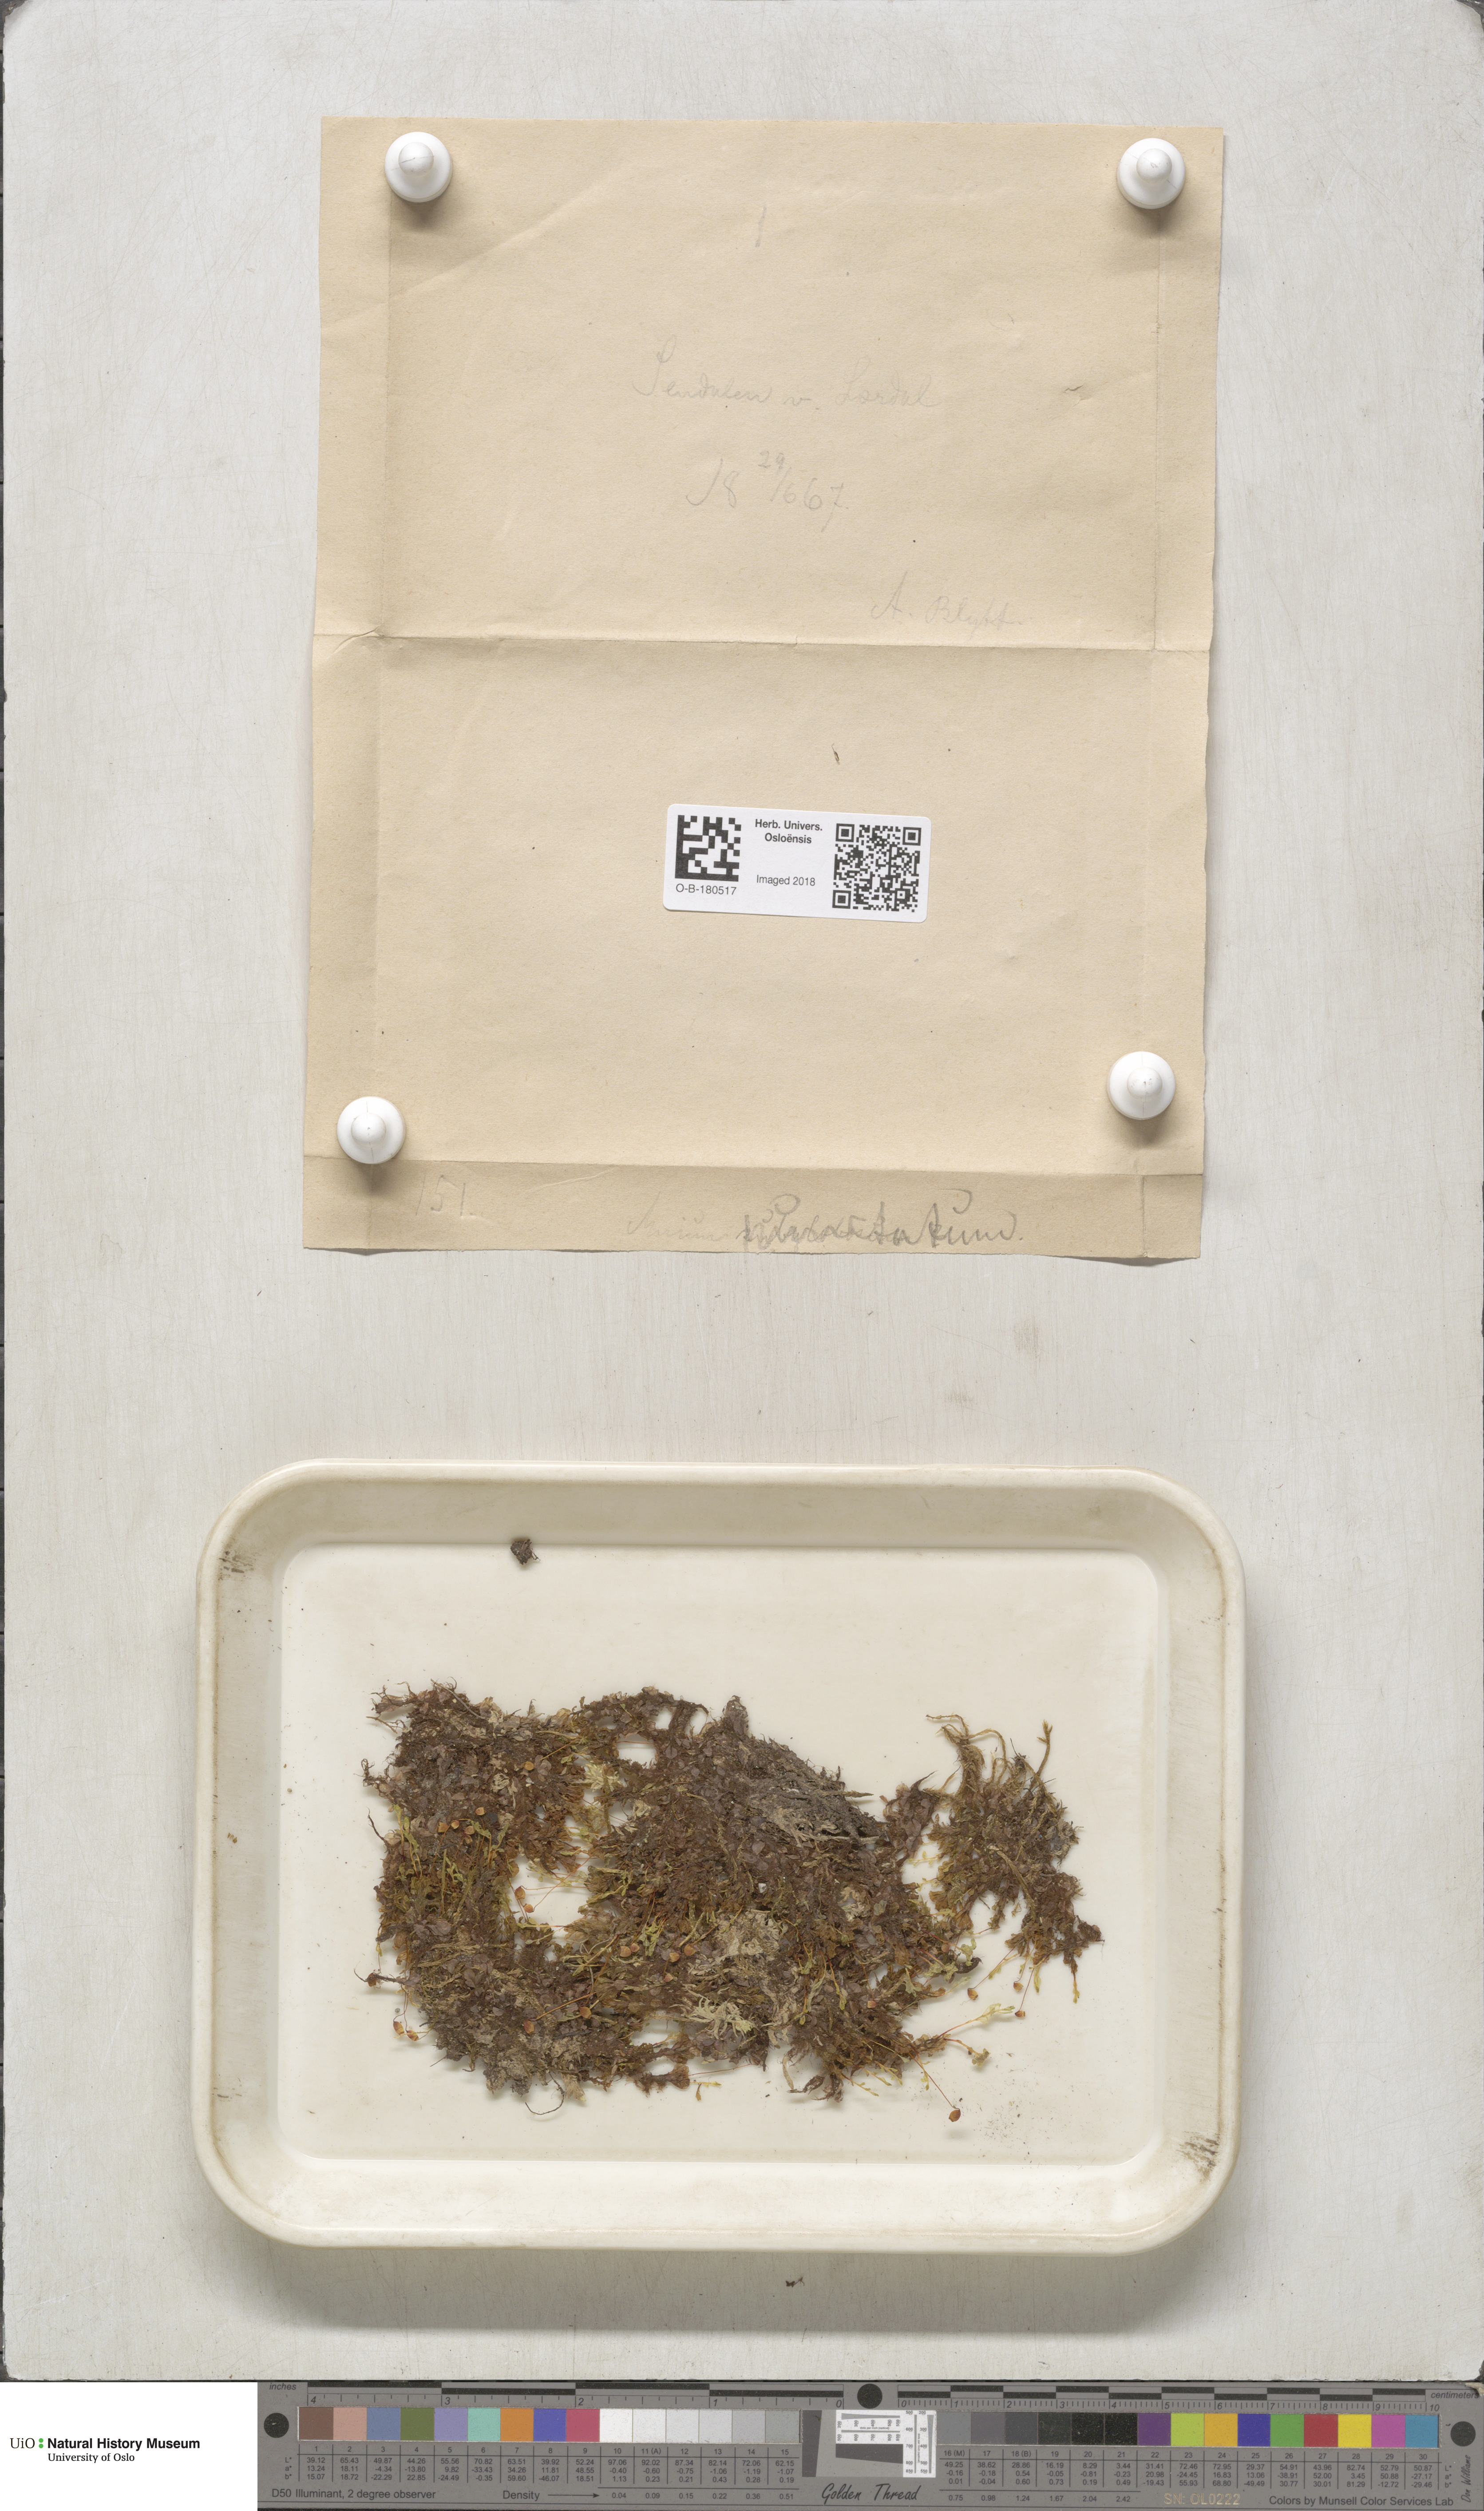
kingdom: Plantae
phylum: Bryophyta
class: Bryopsida
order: Bryales
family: Mniaceae
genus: Rhizomnium
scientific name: Rhizomnium punctatum
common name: Dotted leafy moss
